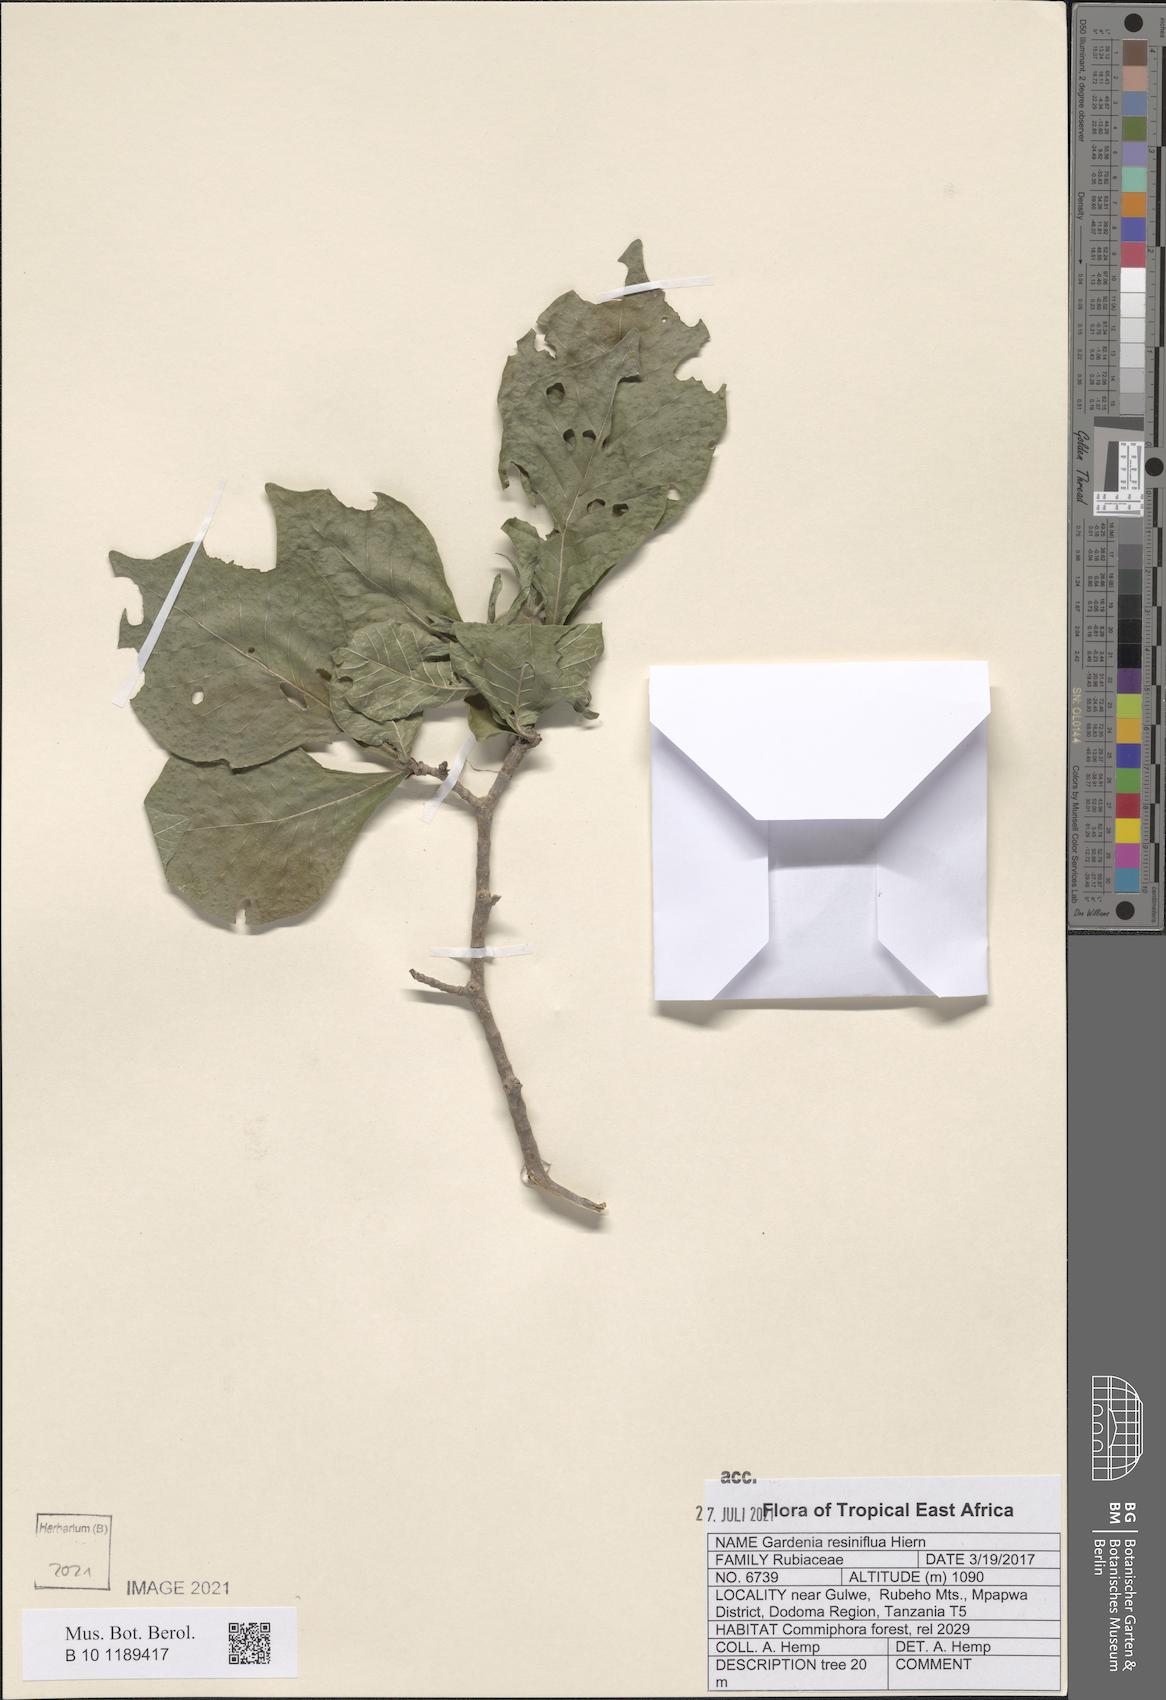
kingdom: Plantae
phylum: Tracheophyta
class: Magnoliopsida
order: Gentianales
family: Rubiaceae
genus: Gardenia
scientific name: Gardenia resiniflua
